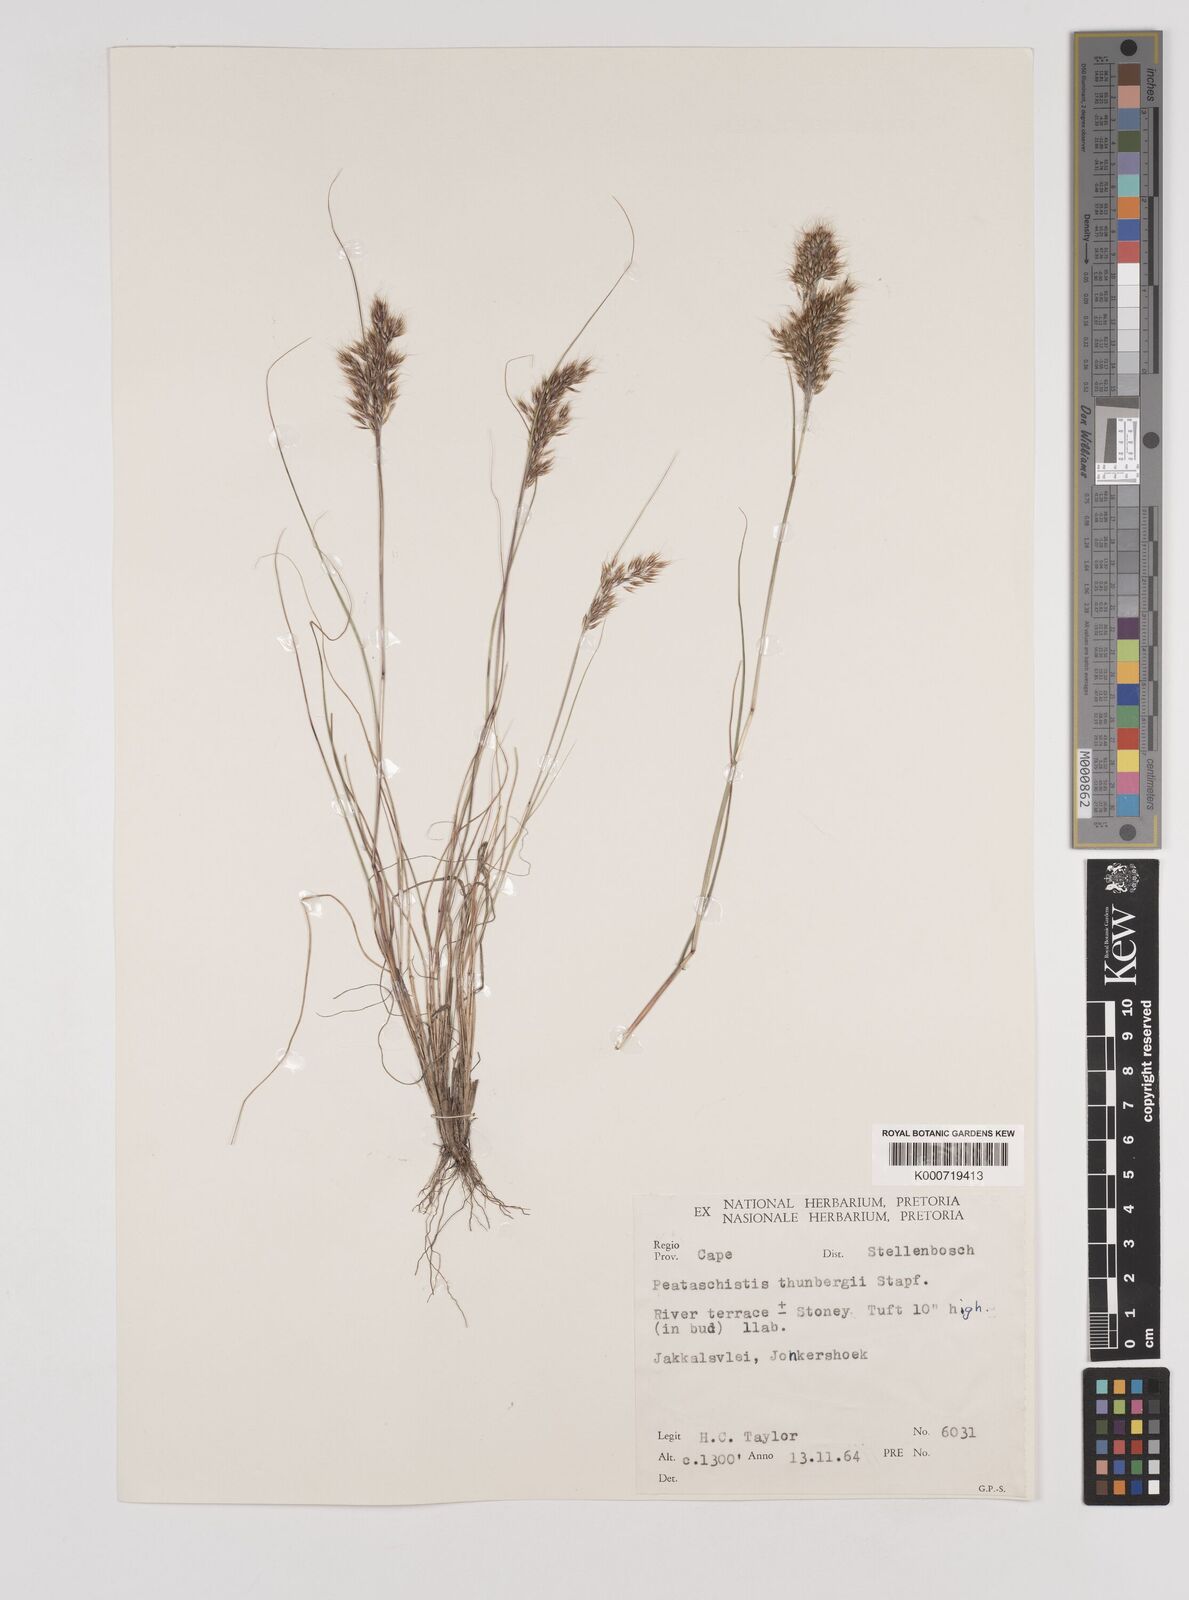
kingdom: Plantae
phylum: Tracheophyta
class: Liliopsida
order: Poales
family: Poaceae
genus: Pentameris
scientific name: Pentameris triseta
